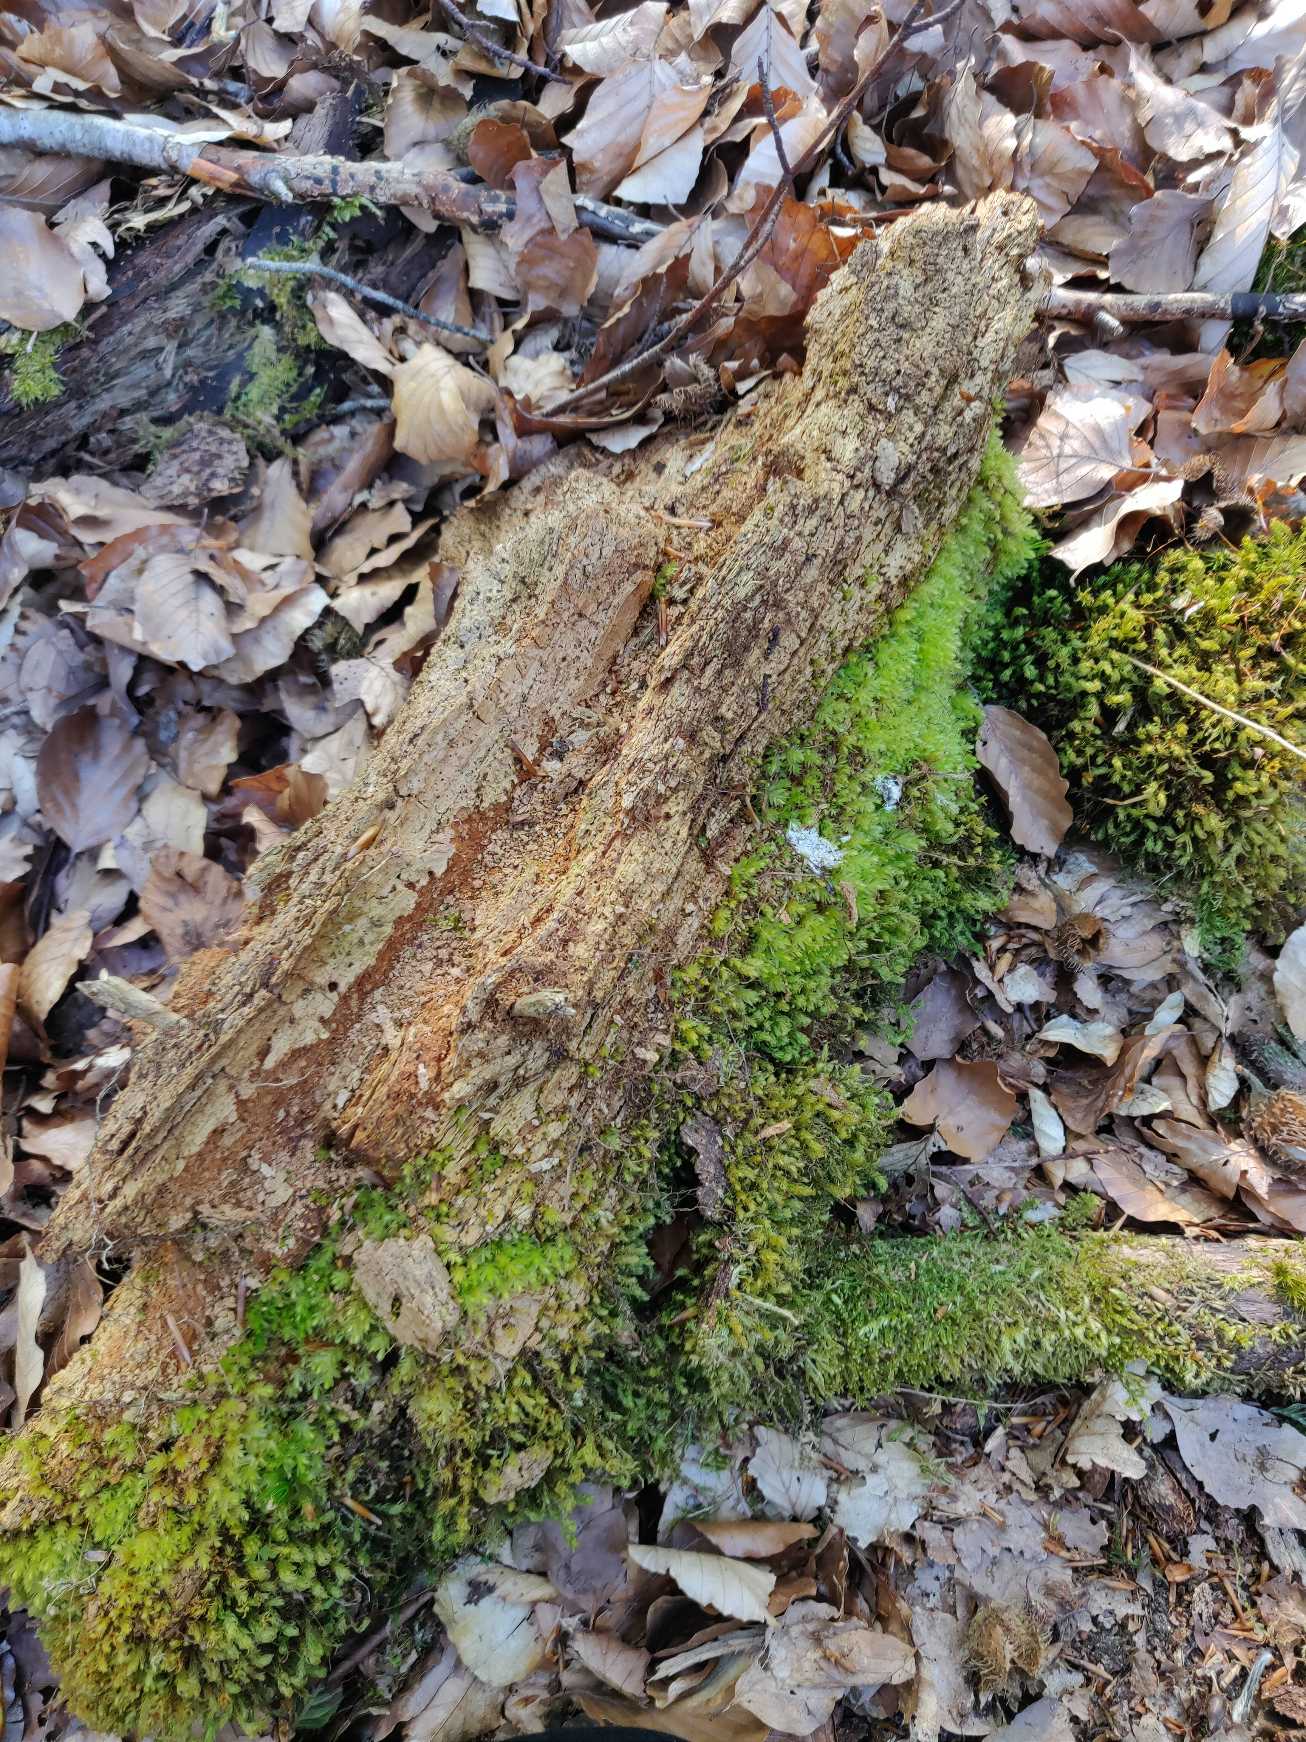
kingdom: Plantae
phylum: Bryophyta
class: Bryopsida
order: Bryales
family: Mniaceae
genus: Mnium
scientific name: Mnium hornum
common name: Brunfiltet stjernemos
